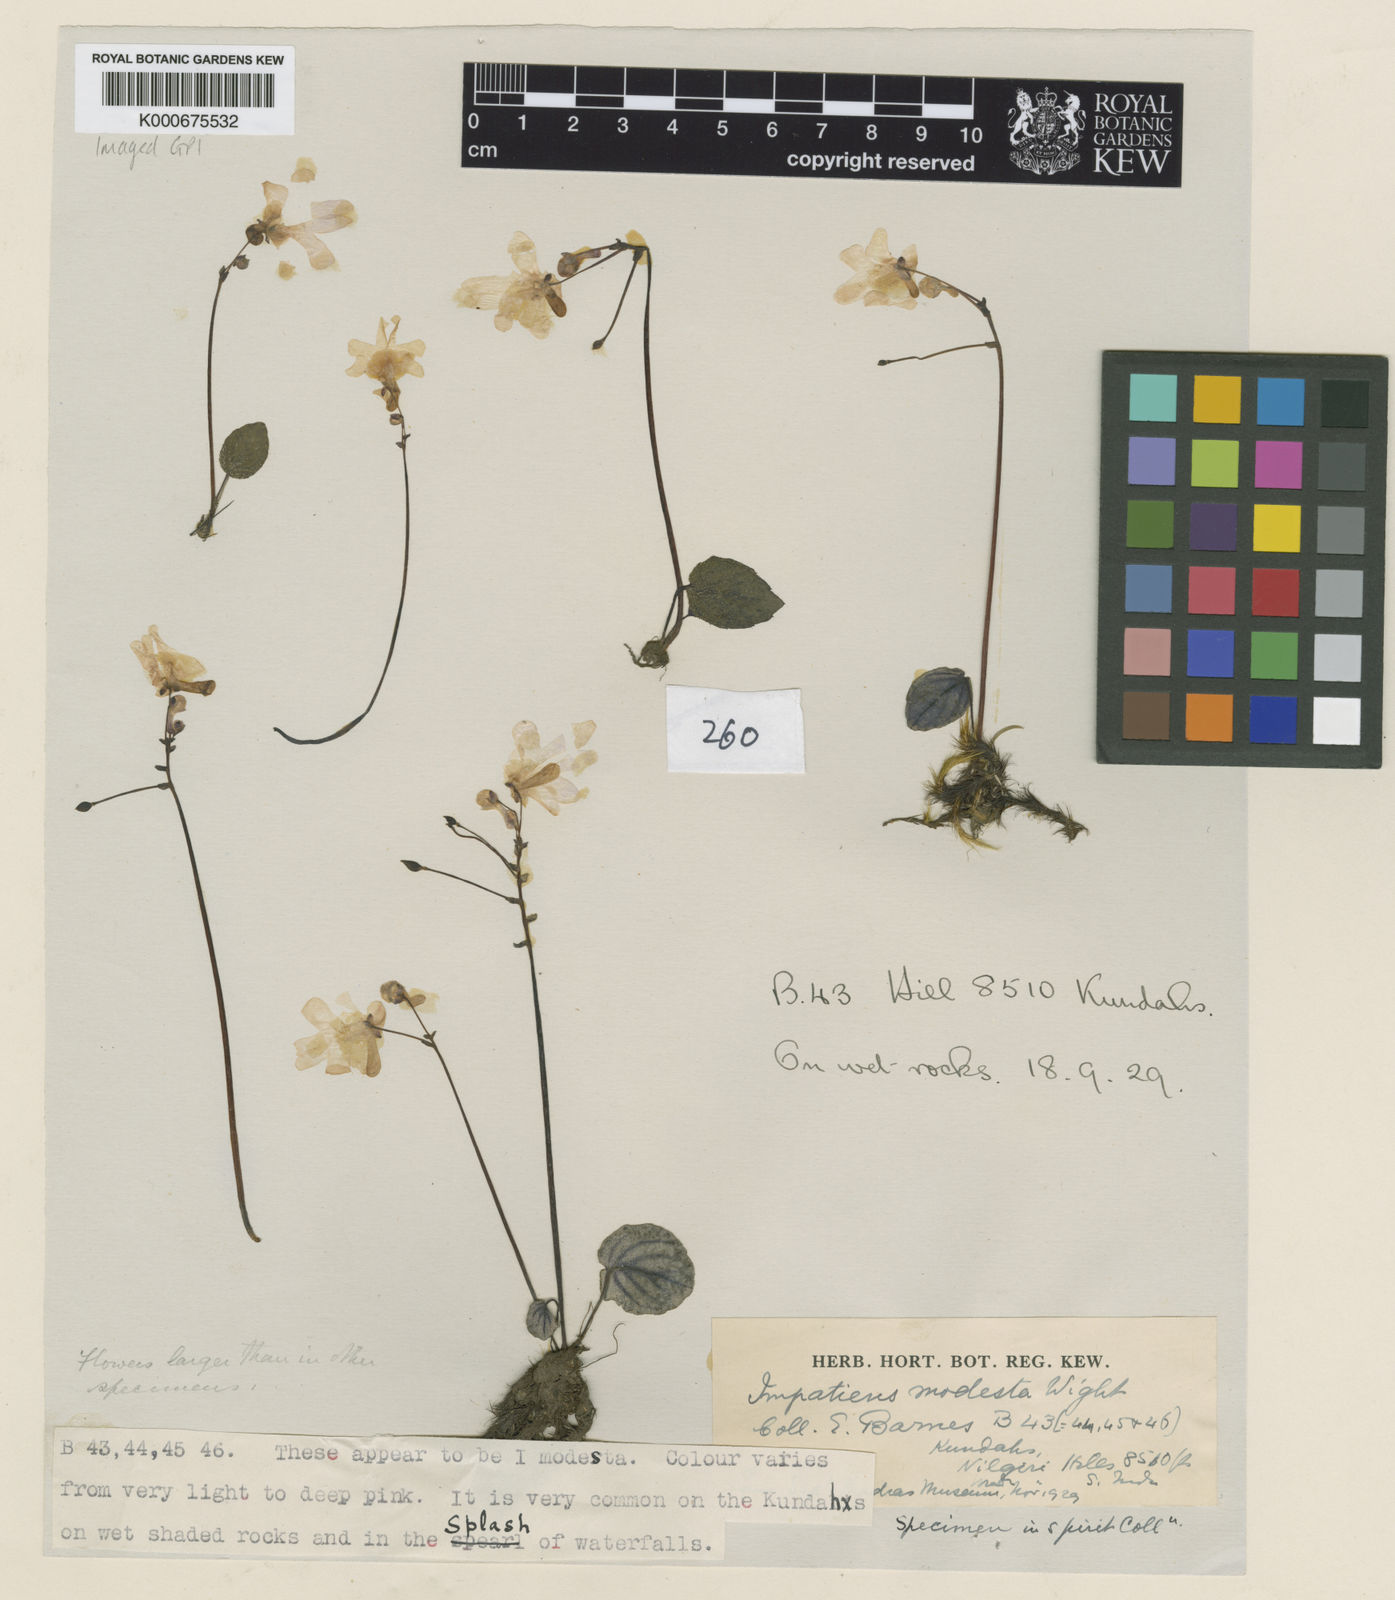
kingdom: Plantae
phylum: Tracheophyta
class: Magnoliopsida
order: Ericales
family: Balsaminaceae
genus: Impatiens
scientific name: Impatiens laticornis
